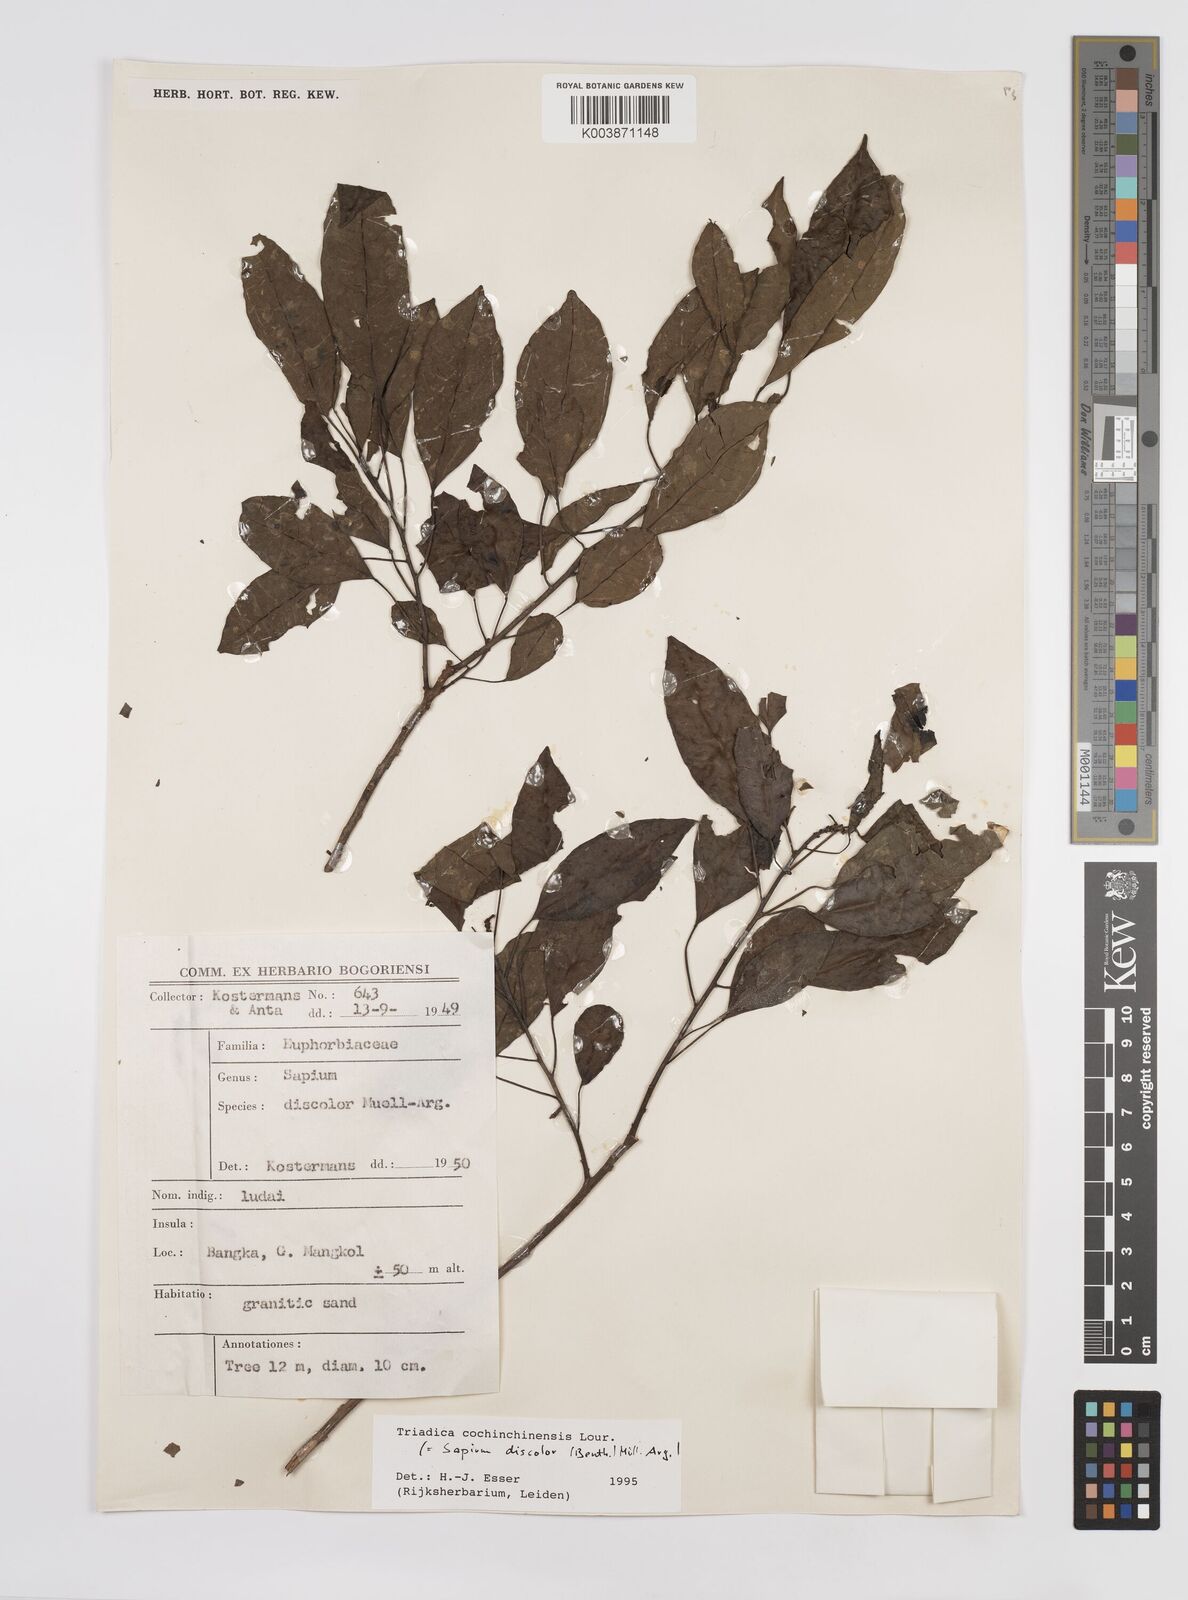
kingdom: Plantae
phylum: Tracheophyta
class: Magnoliopsida
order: Malpighiales
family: Euphorbiaceae
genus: Triadica
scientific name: Triadica cochinchinensis
